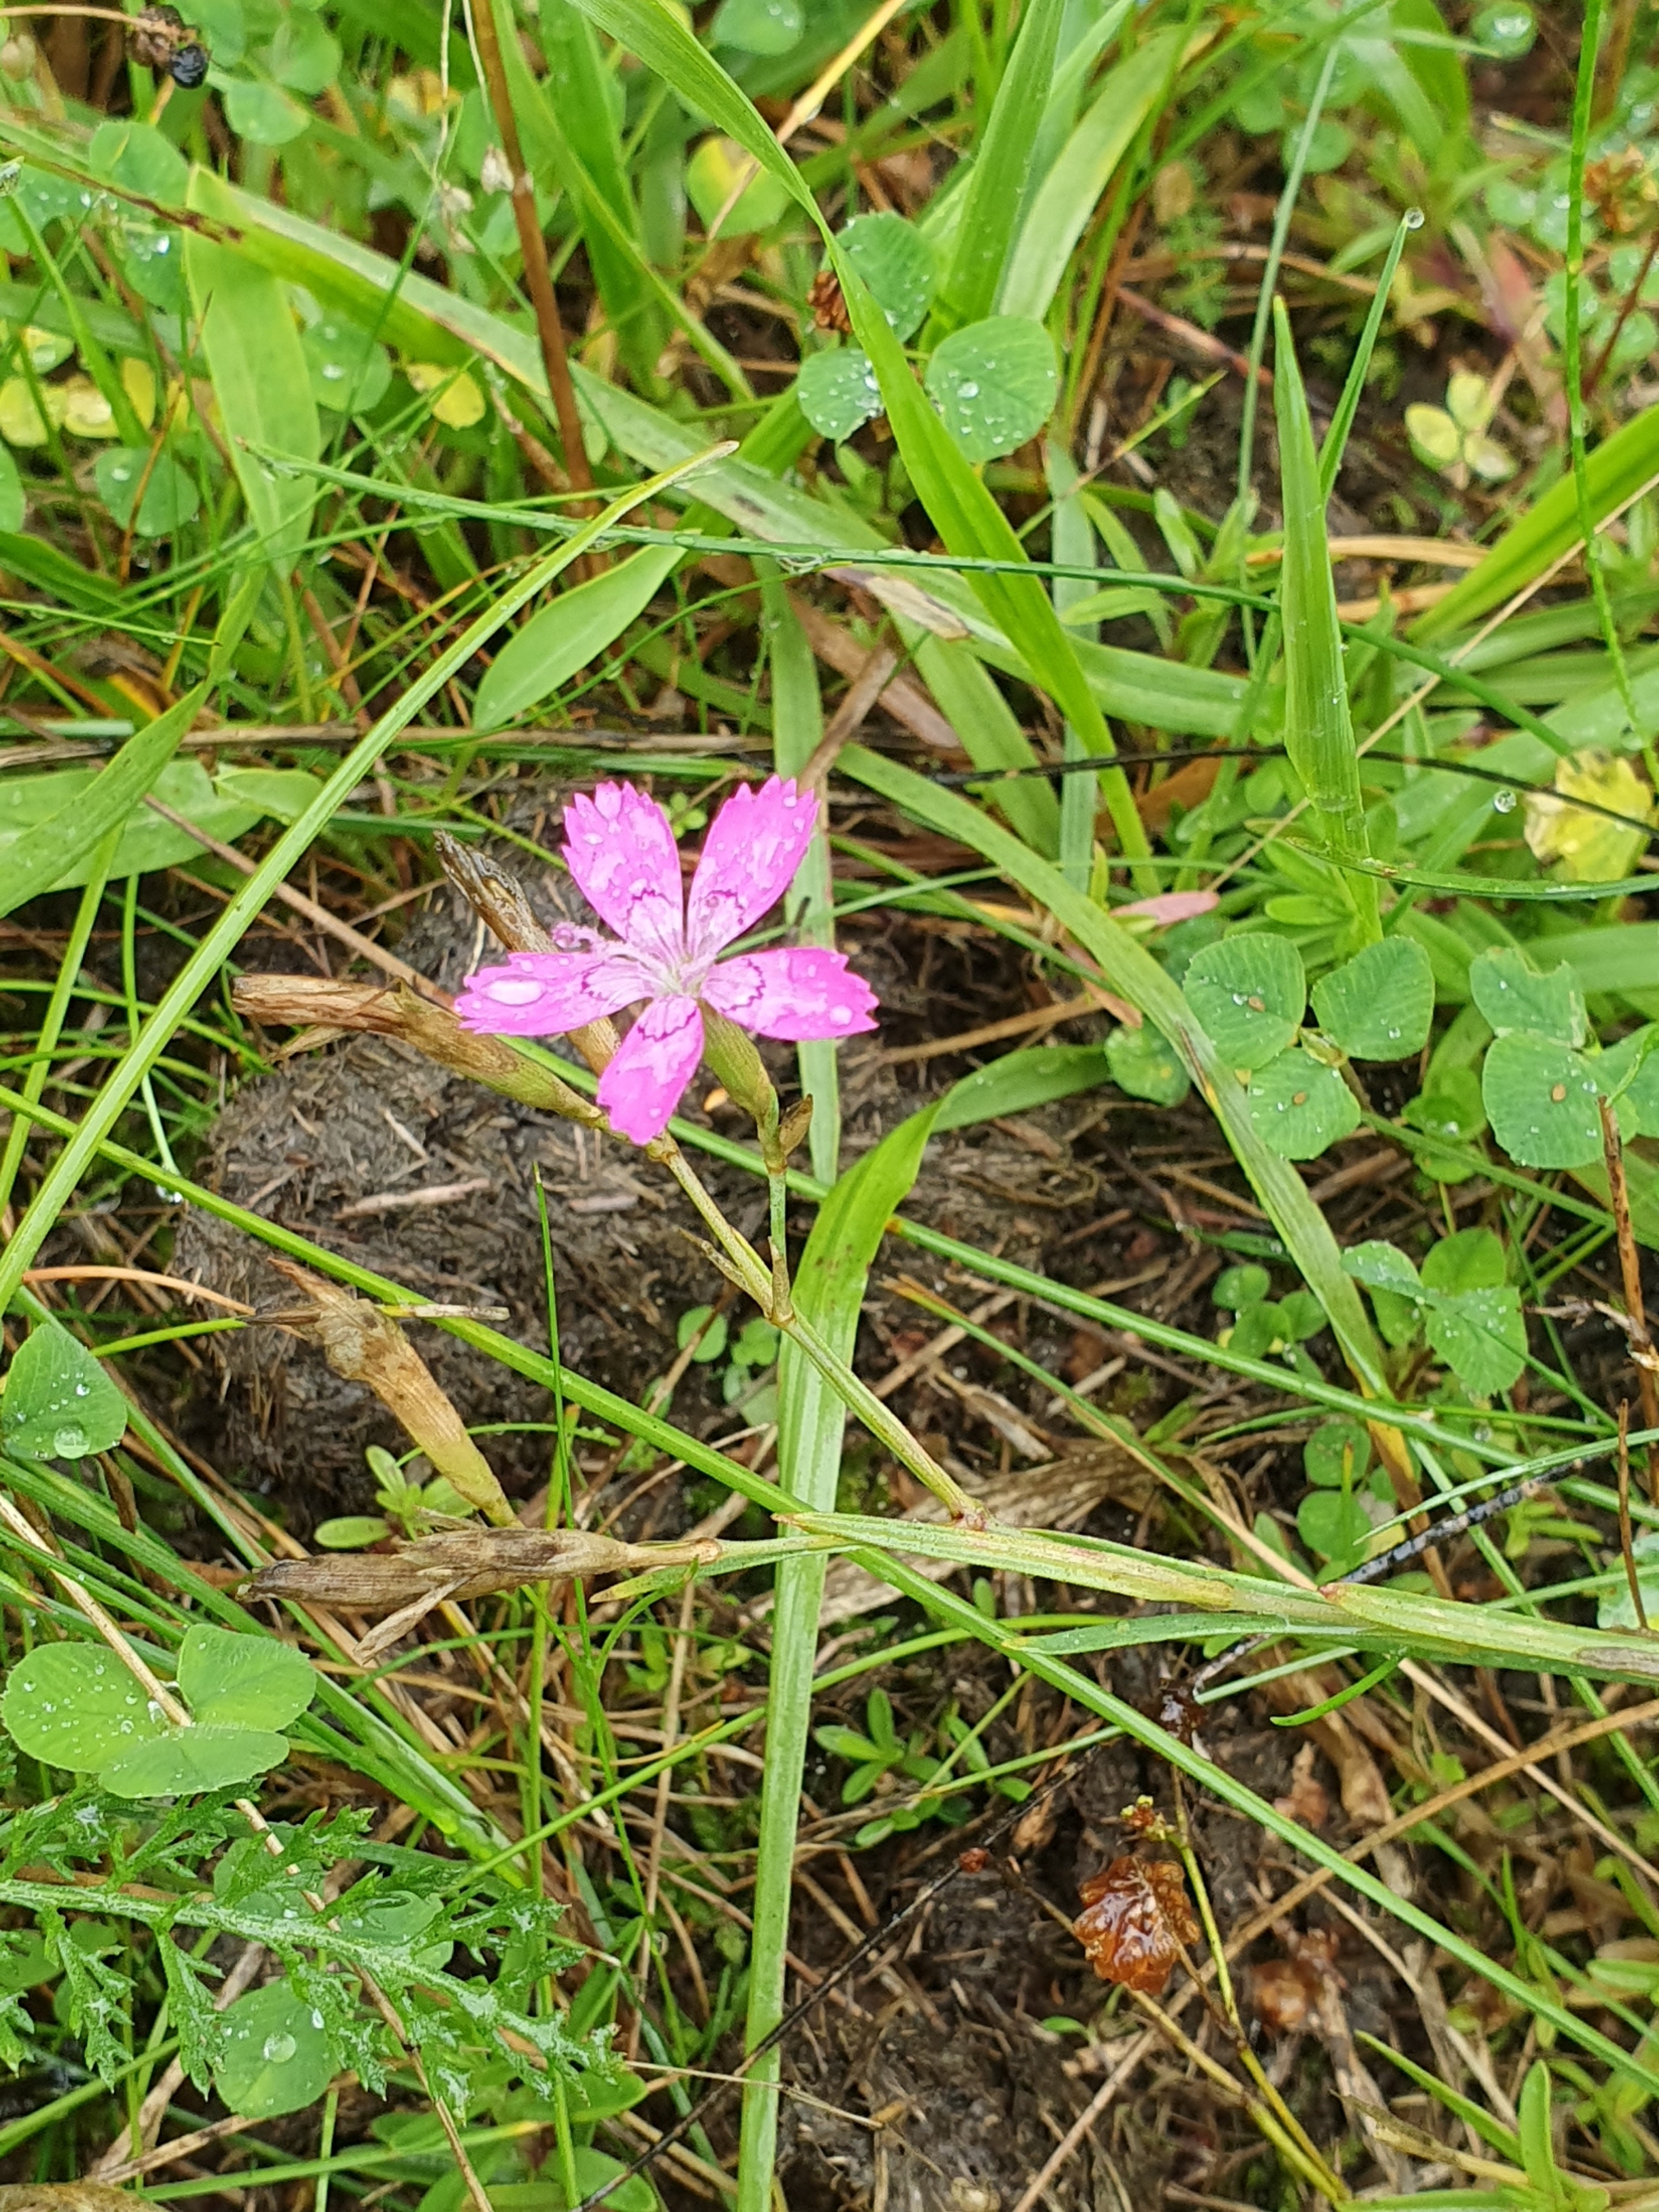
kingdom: Plantae
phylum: Tracheophyta
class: Magnoliopsida
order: Caryophyllales
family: Caryophyllaceae
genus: Dianthus
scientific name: Dianthus deltoides
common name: Bakke-nellike
